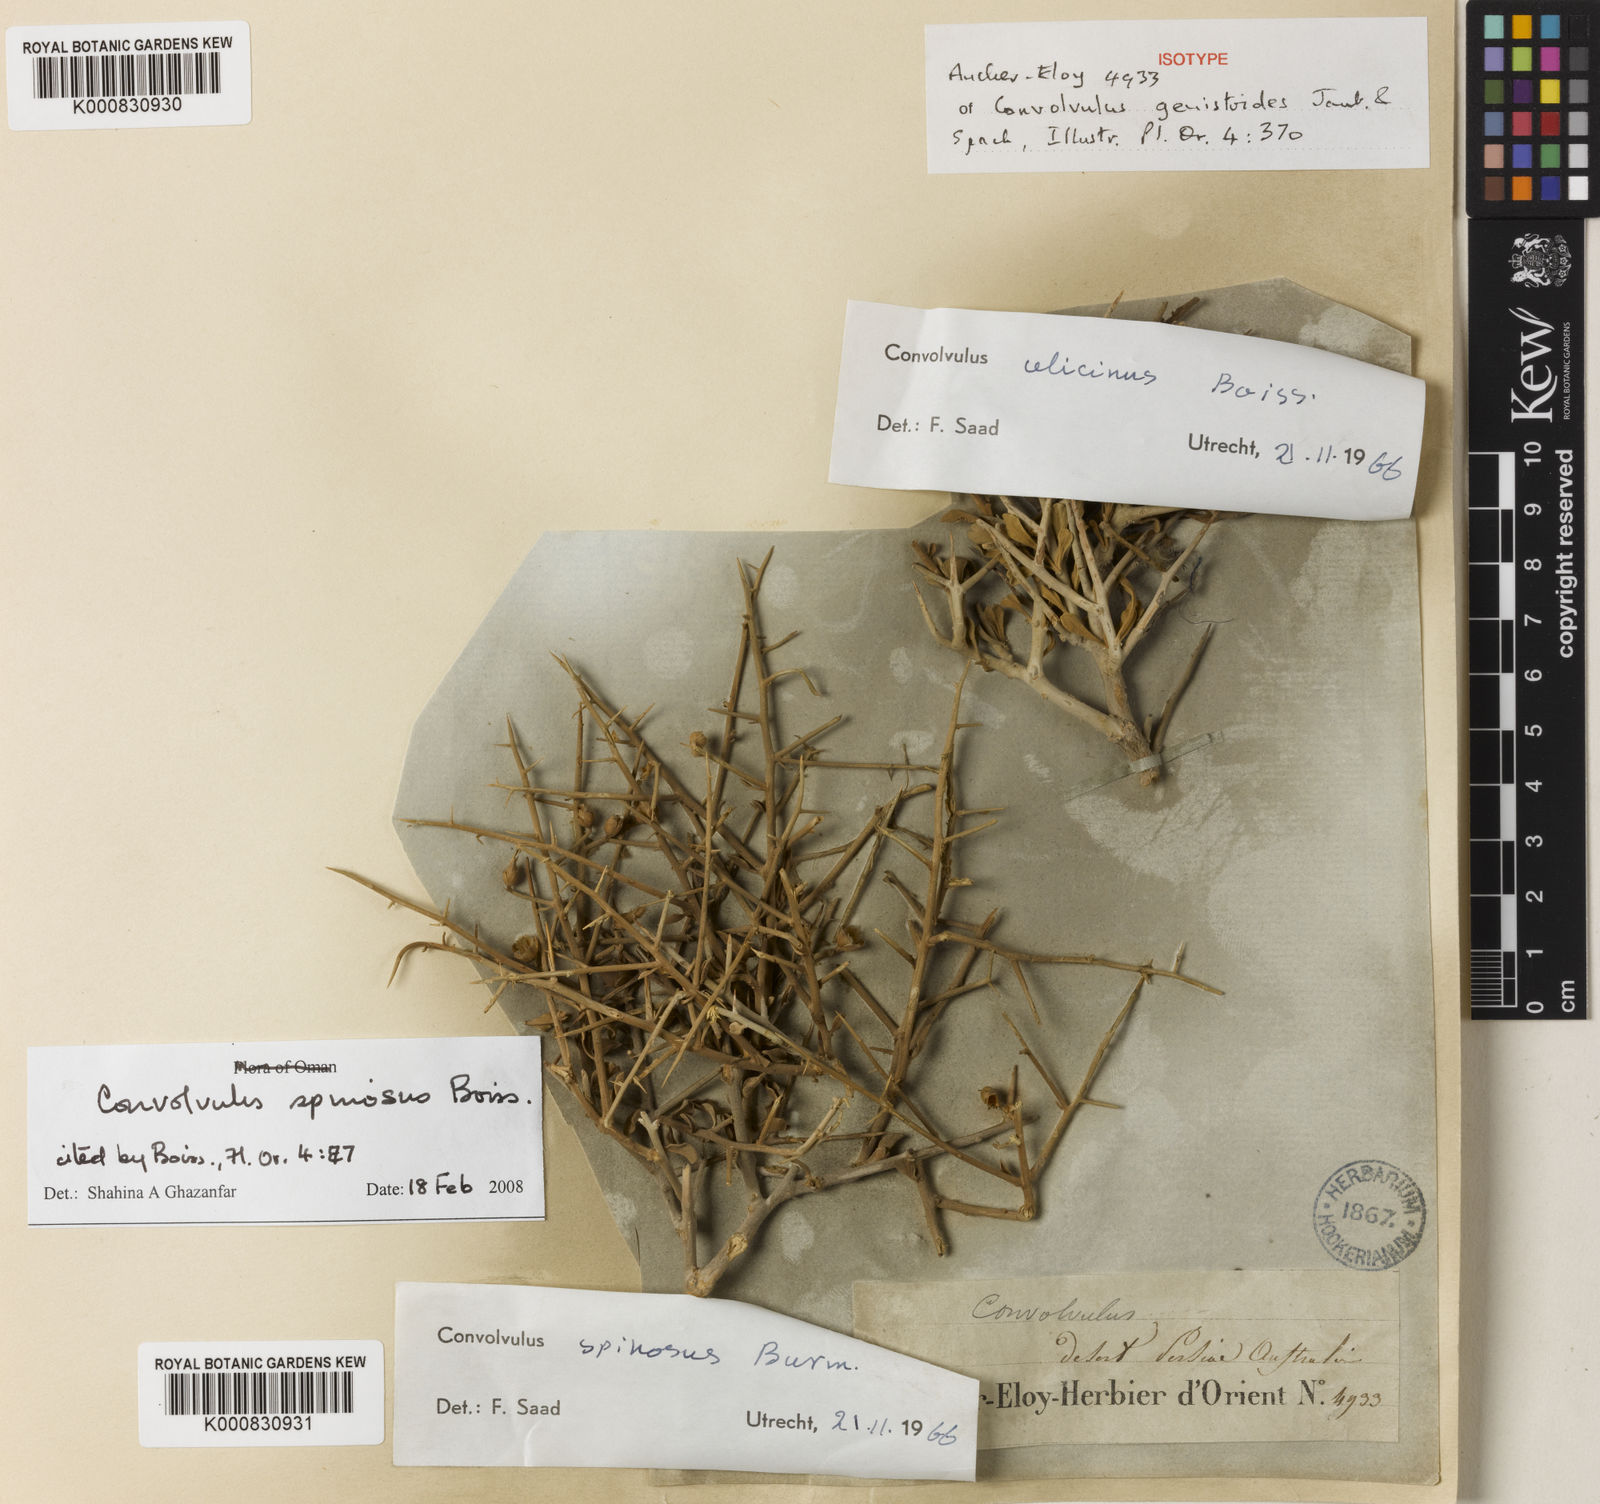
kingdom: Plantae
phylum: Tracheophyta
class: Magnoliopsida
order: Solanales
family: Convolvulaceae
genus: Convolvulus
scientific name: Convolvulus
